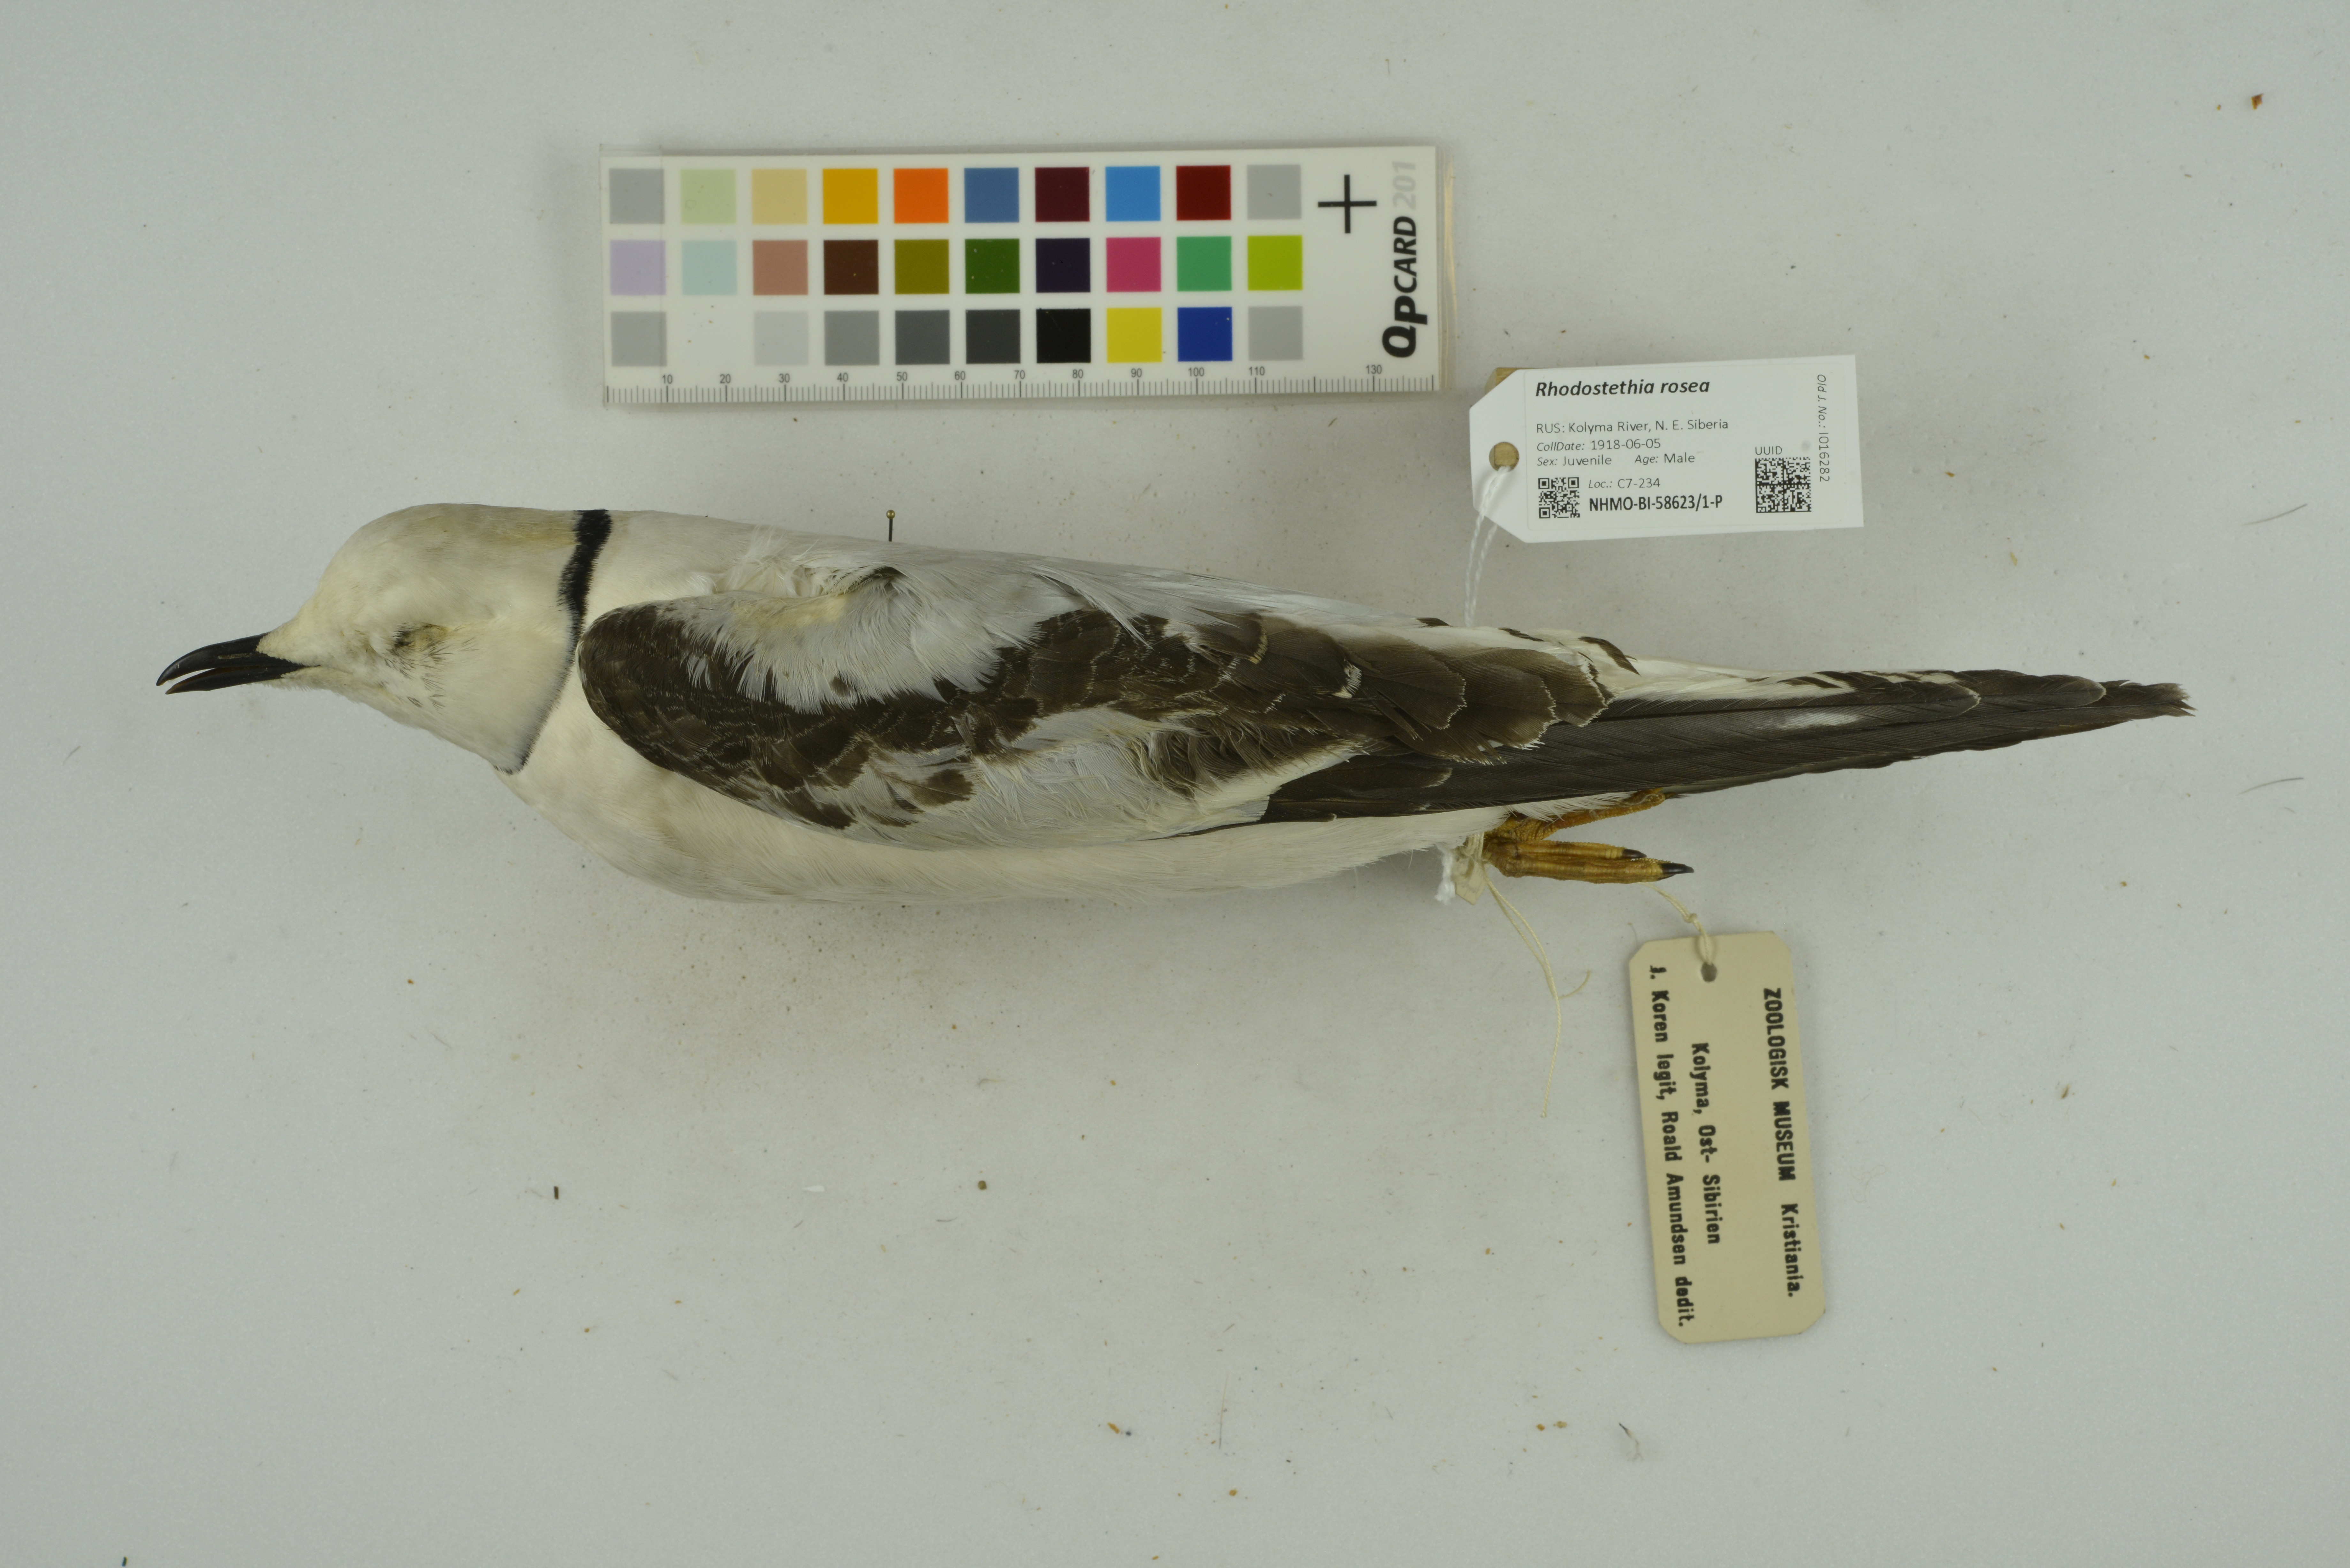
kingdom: Animalia
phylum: Chordata
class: Aves
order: Charadriiformes
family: Laridae
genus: Rhodostethia
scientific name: Rhodostethia rosea
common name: Ross's gull
